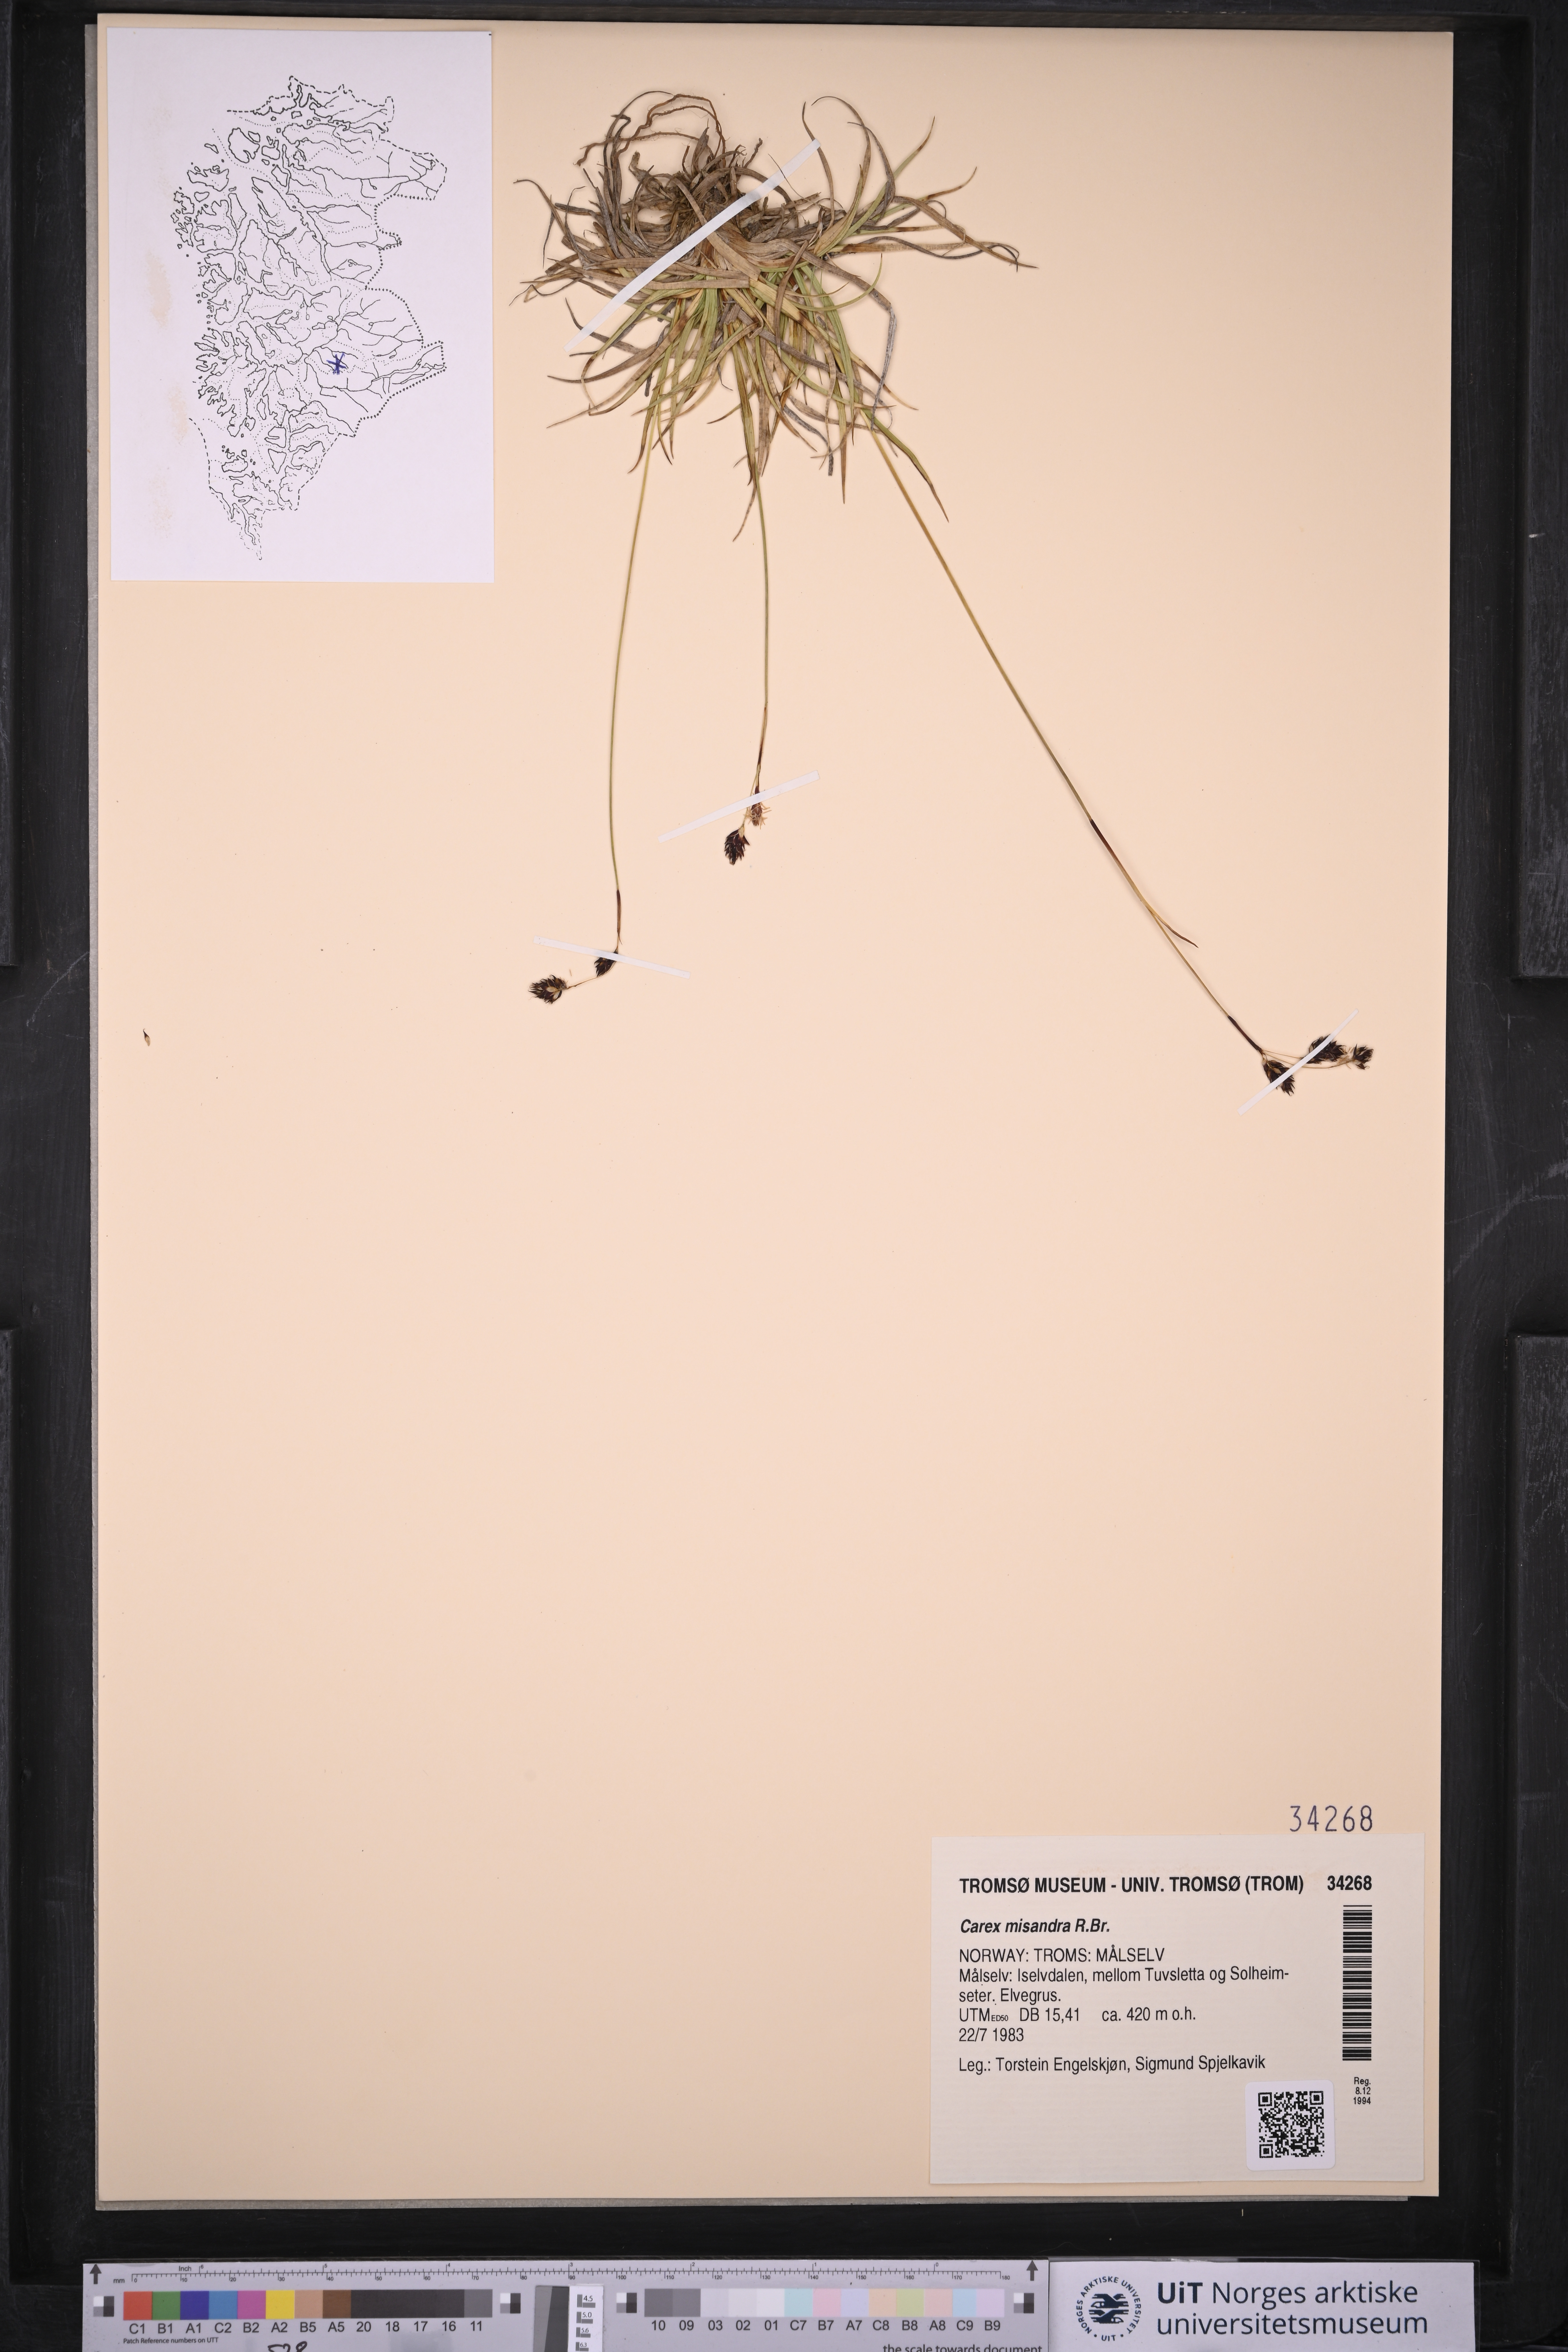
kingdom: Plantae
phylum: Tracheophyta
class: Liliopsida
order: Poales
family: Cyperaceae
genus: Carex
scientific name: Carex fuliginosa
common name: Few-flowered sedge
